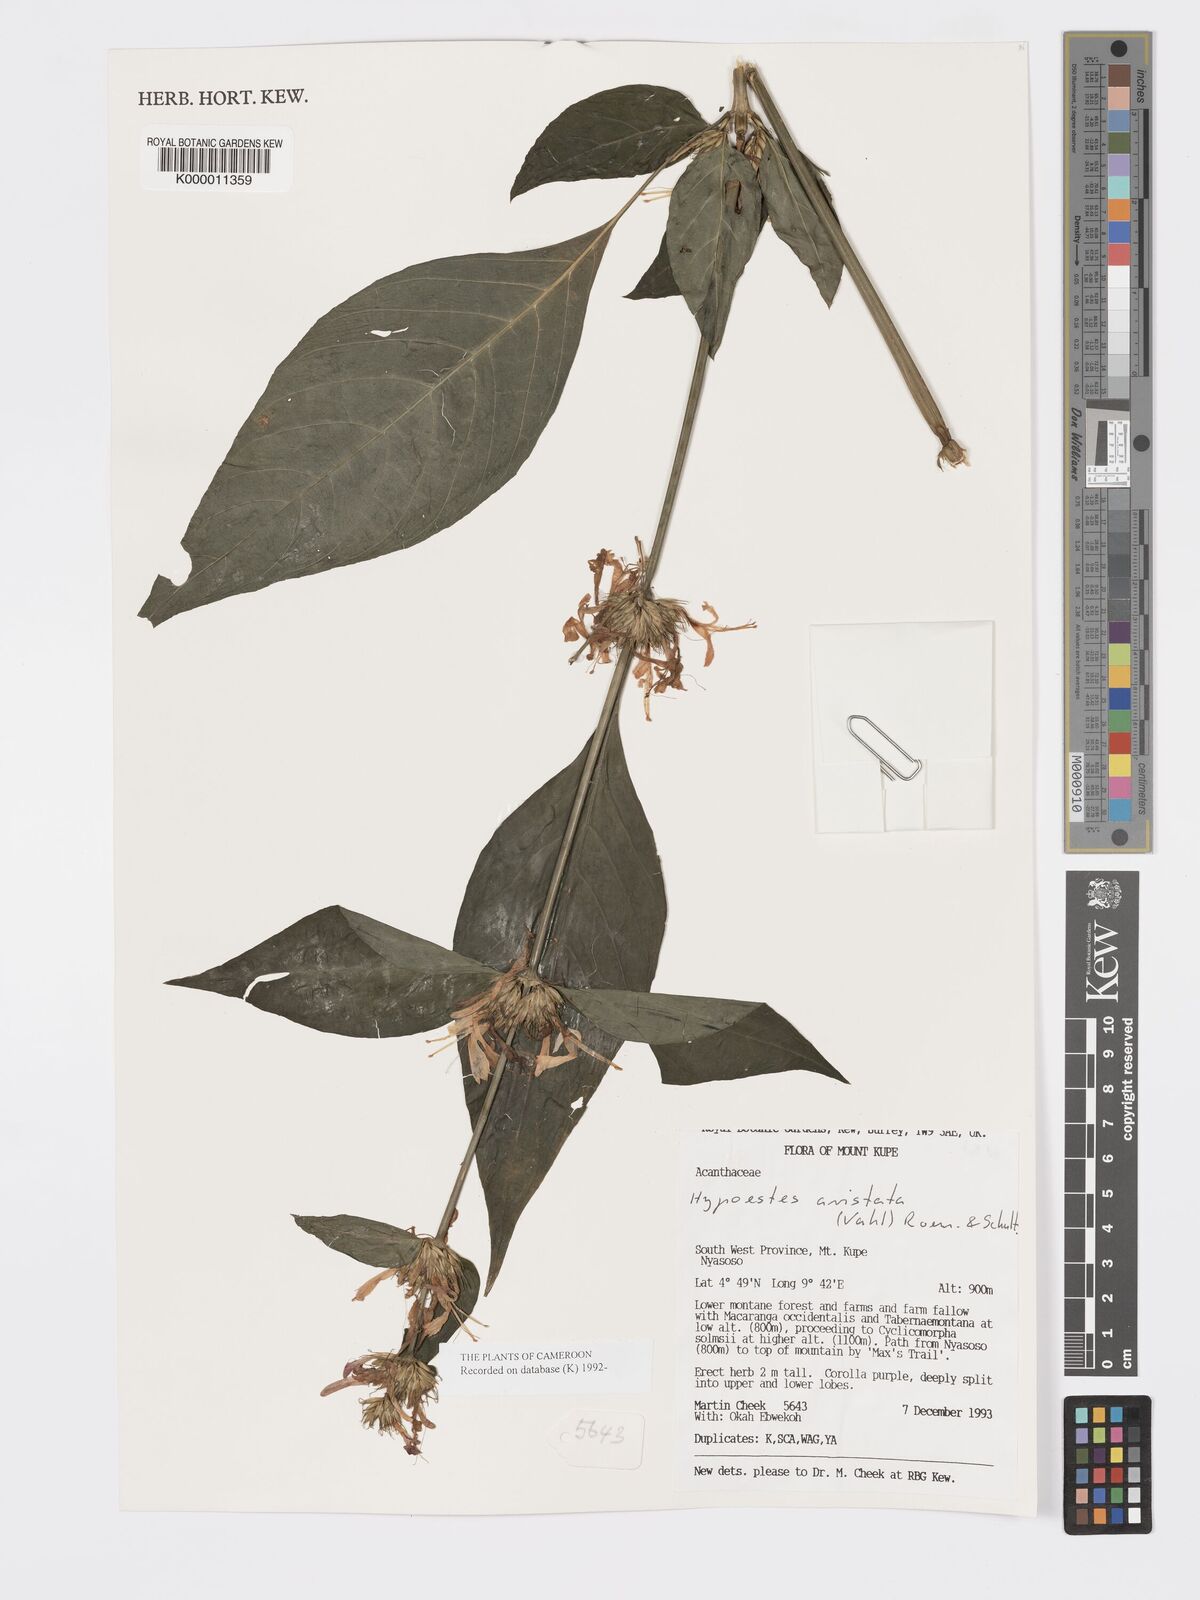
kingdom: Plantae
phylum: Tracheophyta
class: Magnoliopsida
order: Lamiales
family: Acanthaceae
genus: Hypoestes
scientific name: Hypoestes aristata
